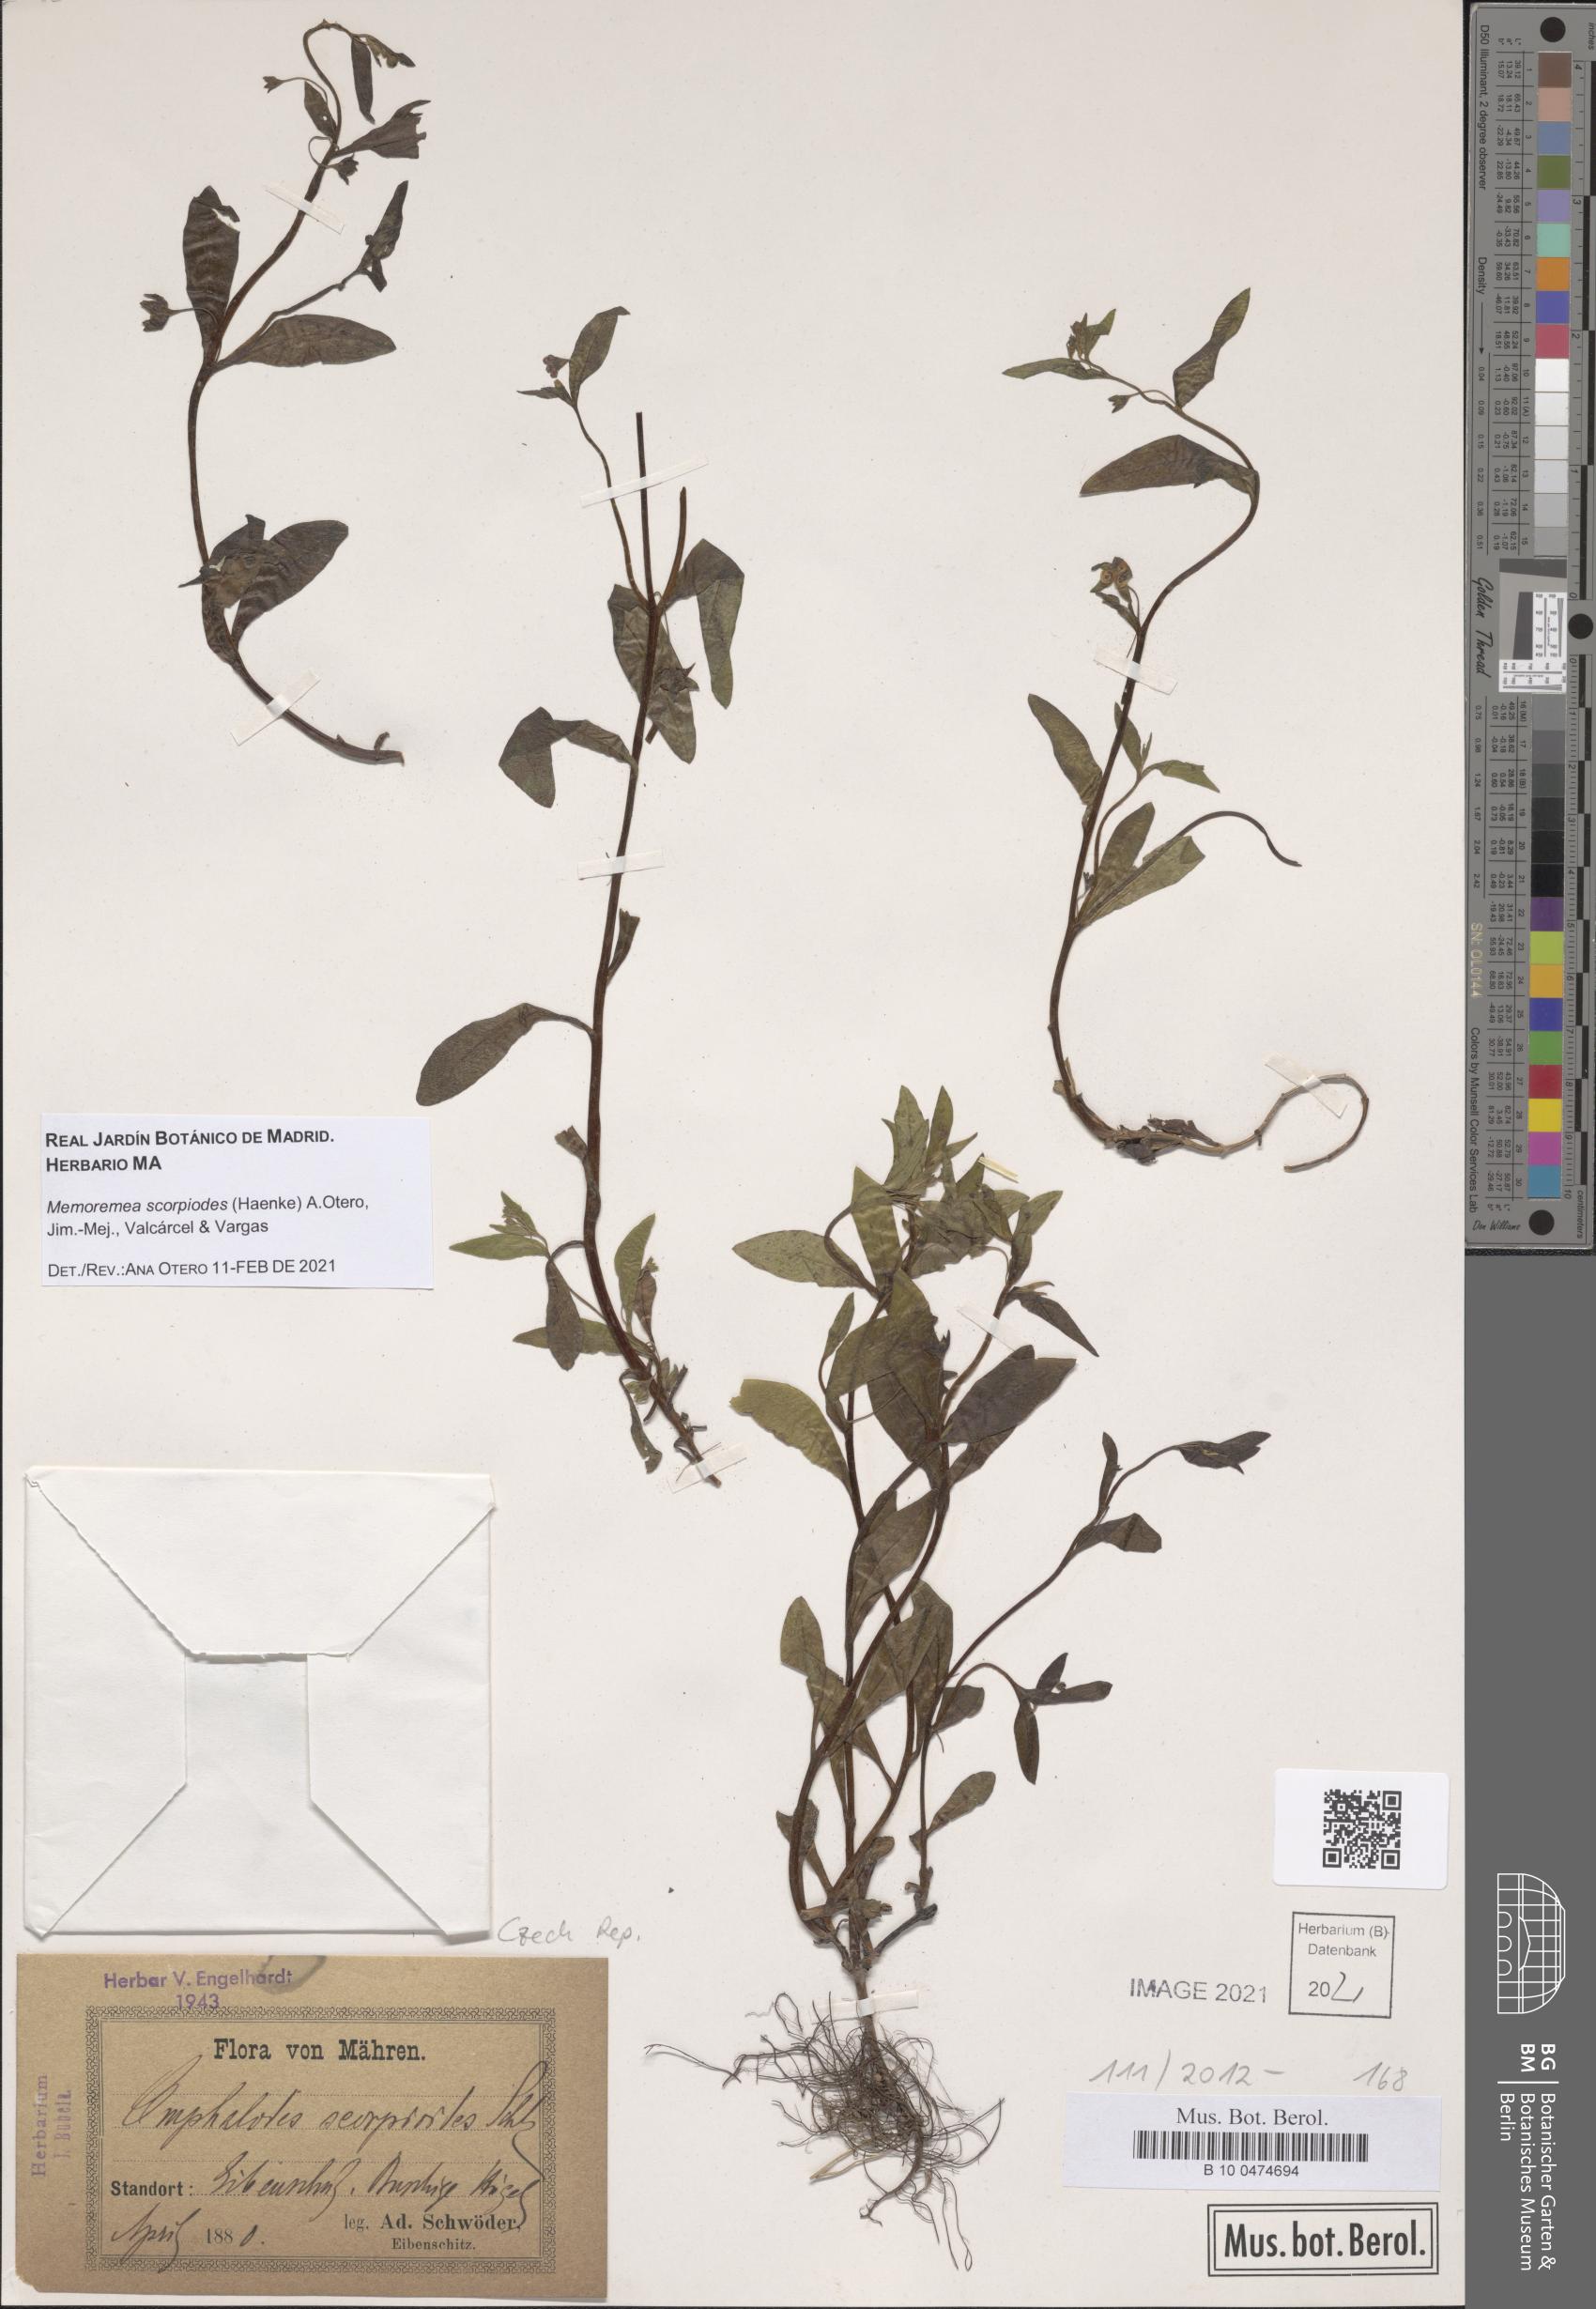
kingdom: Plantae
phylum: Tracheophyta
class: Magnoliopsida
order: Boraginales
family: Boraginaceae
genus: Memoremea
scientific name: Memoremea scorpioides
